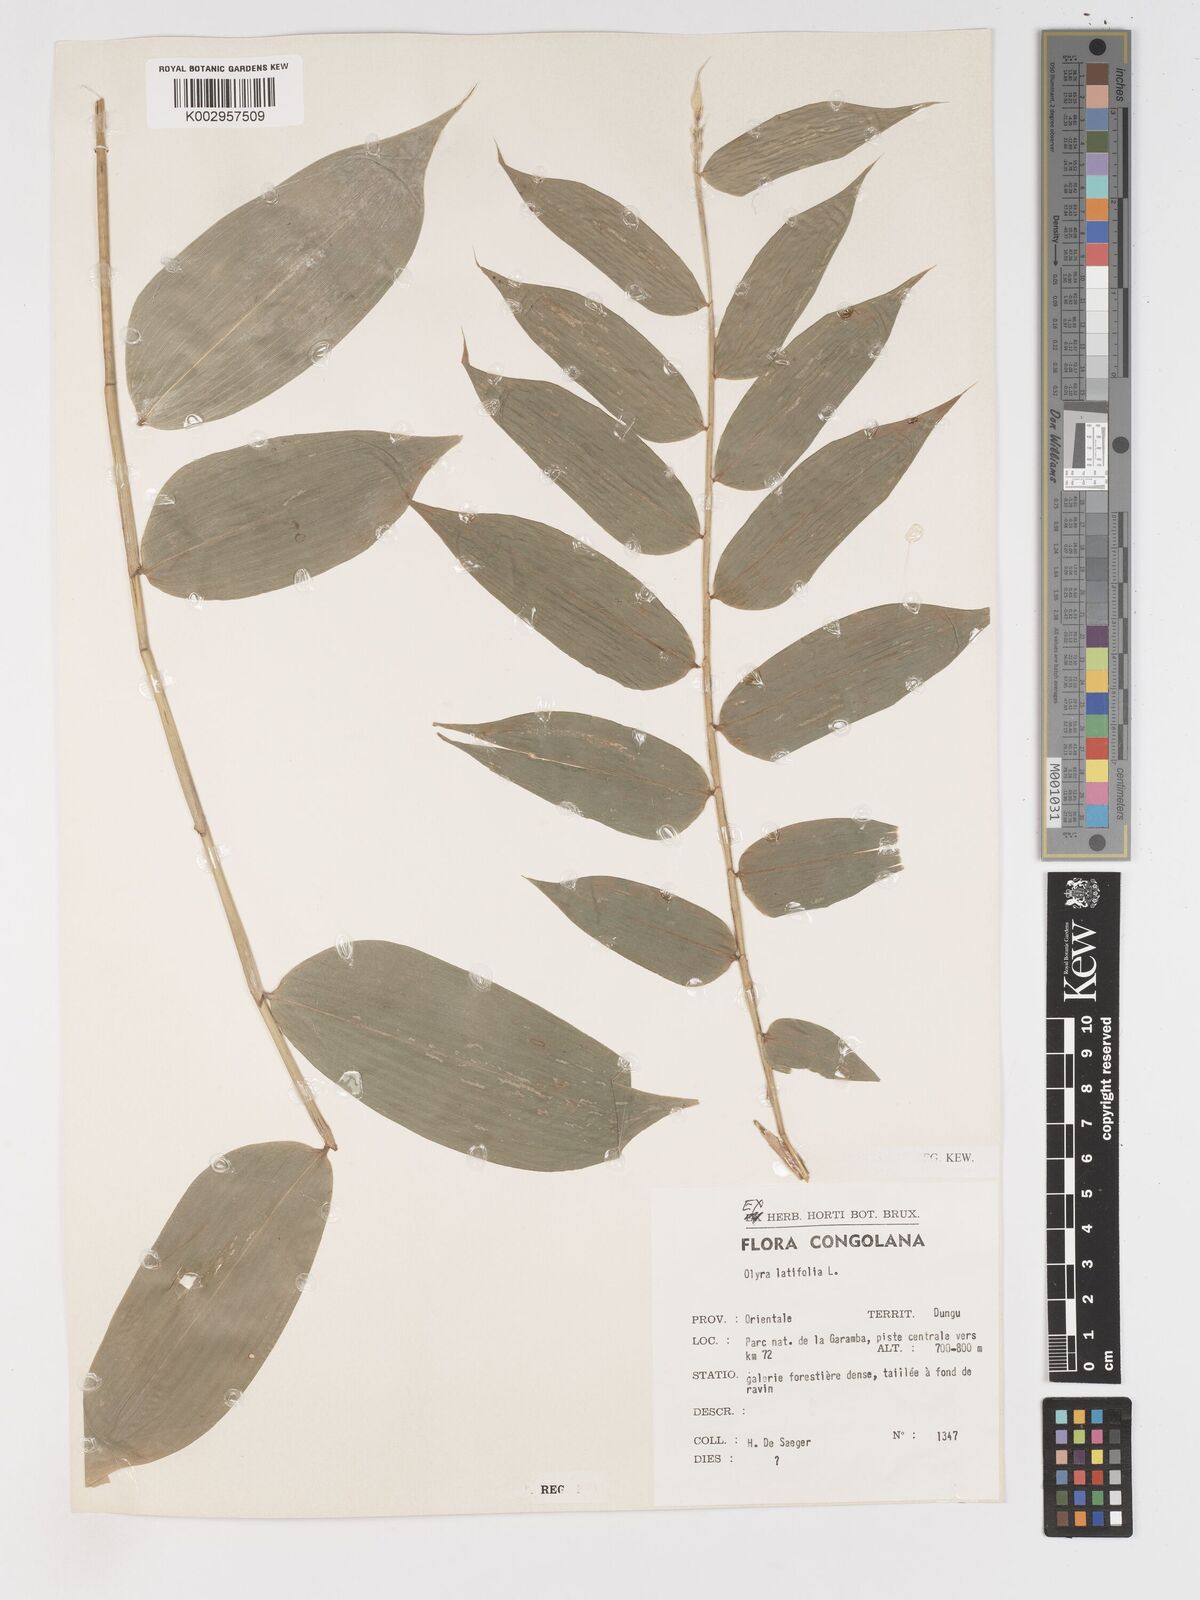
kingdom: Plantae
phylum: Tracheophyta
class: Liliopsida
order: Poales
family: Poaceae
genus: Olyra
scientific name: Olyra latifolia
